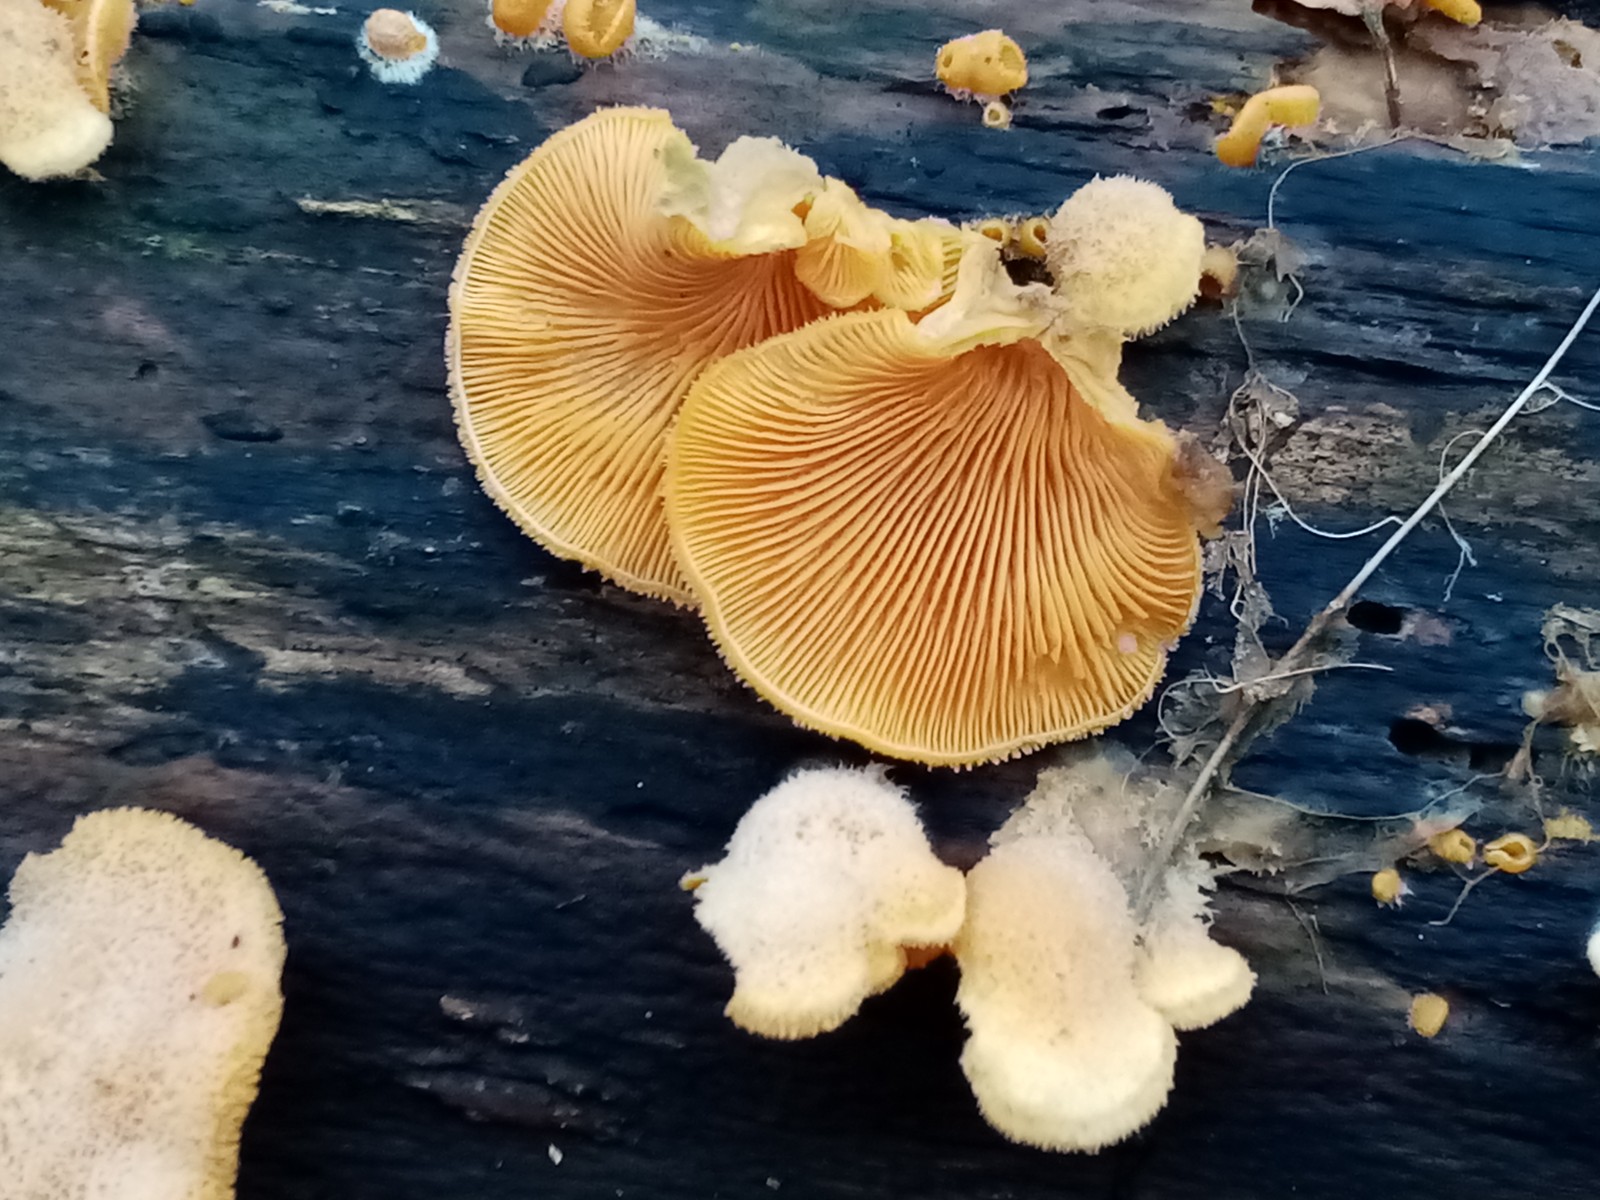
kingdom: Fungi
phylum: Basidiomycota
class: Agaricomycetes
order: Agaricales
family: Phyllotopsidaceae
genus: Phyllotopsis
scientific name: Phyllotopsis nidulans
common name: okkerblad
